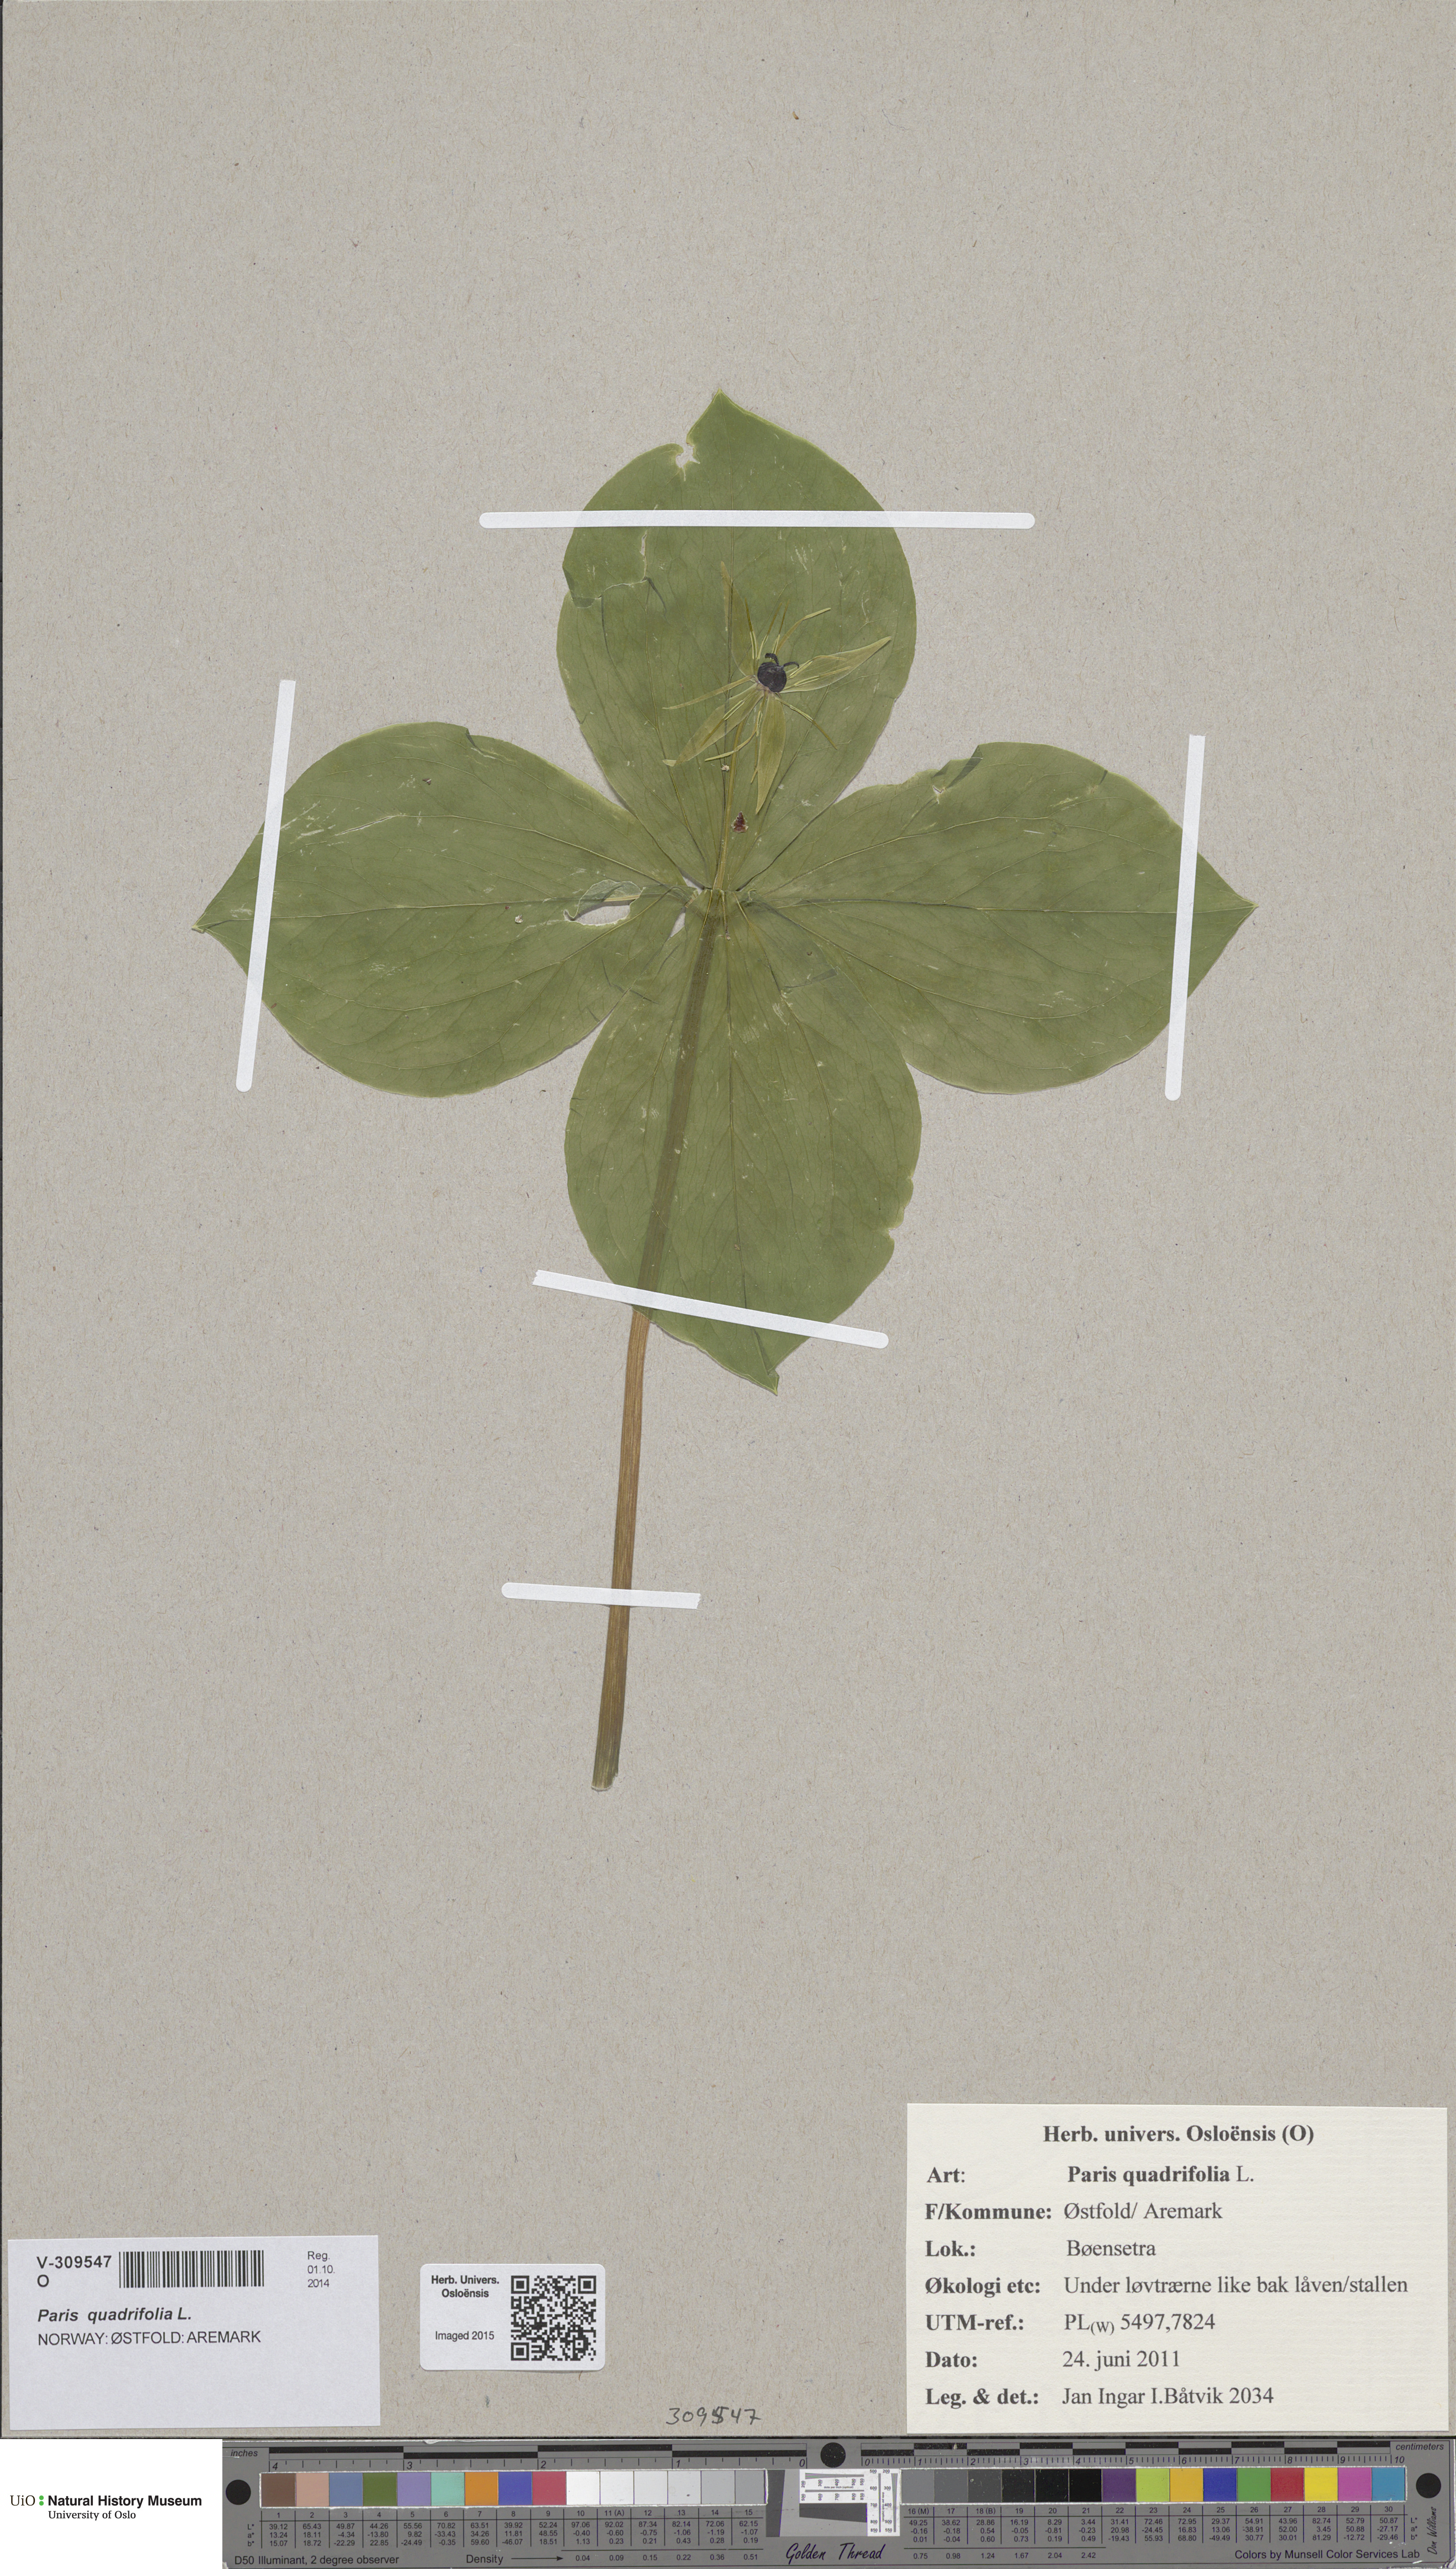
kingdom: Plantae
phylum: Tracheophyta
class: Liliopsida
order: Liliales
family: Melanthiaceae
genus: Paris
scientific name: Paris quadrifolia
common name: Herb-paris
